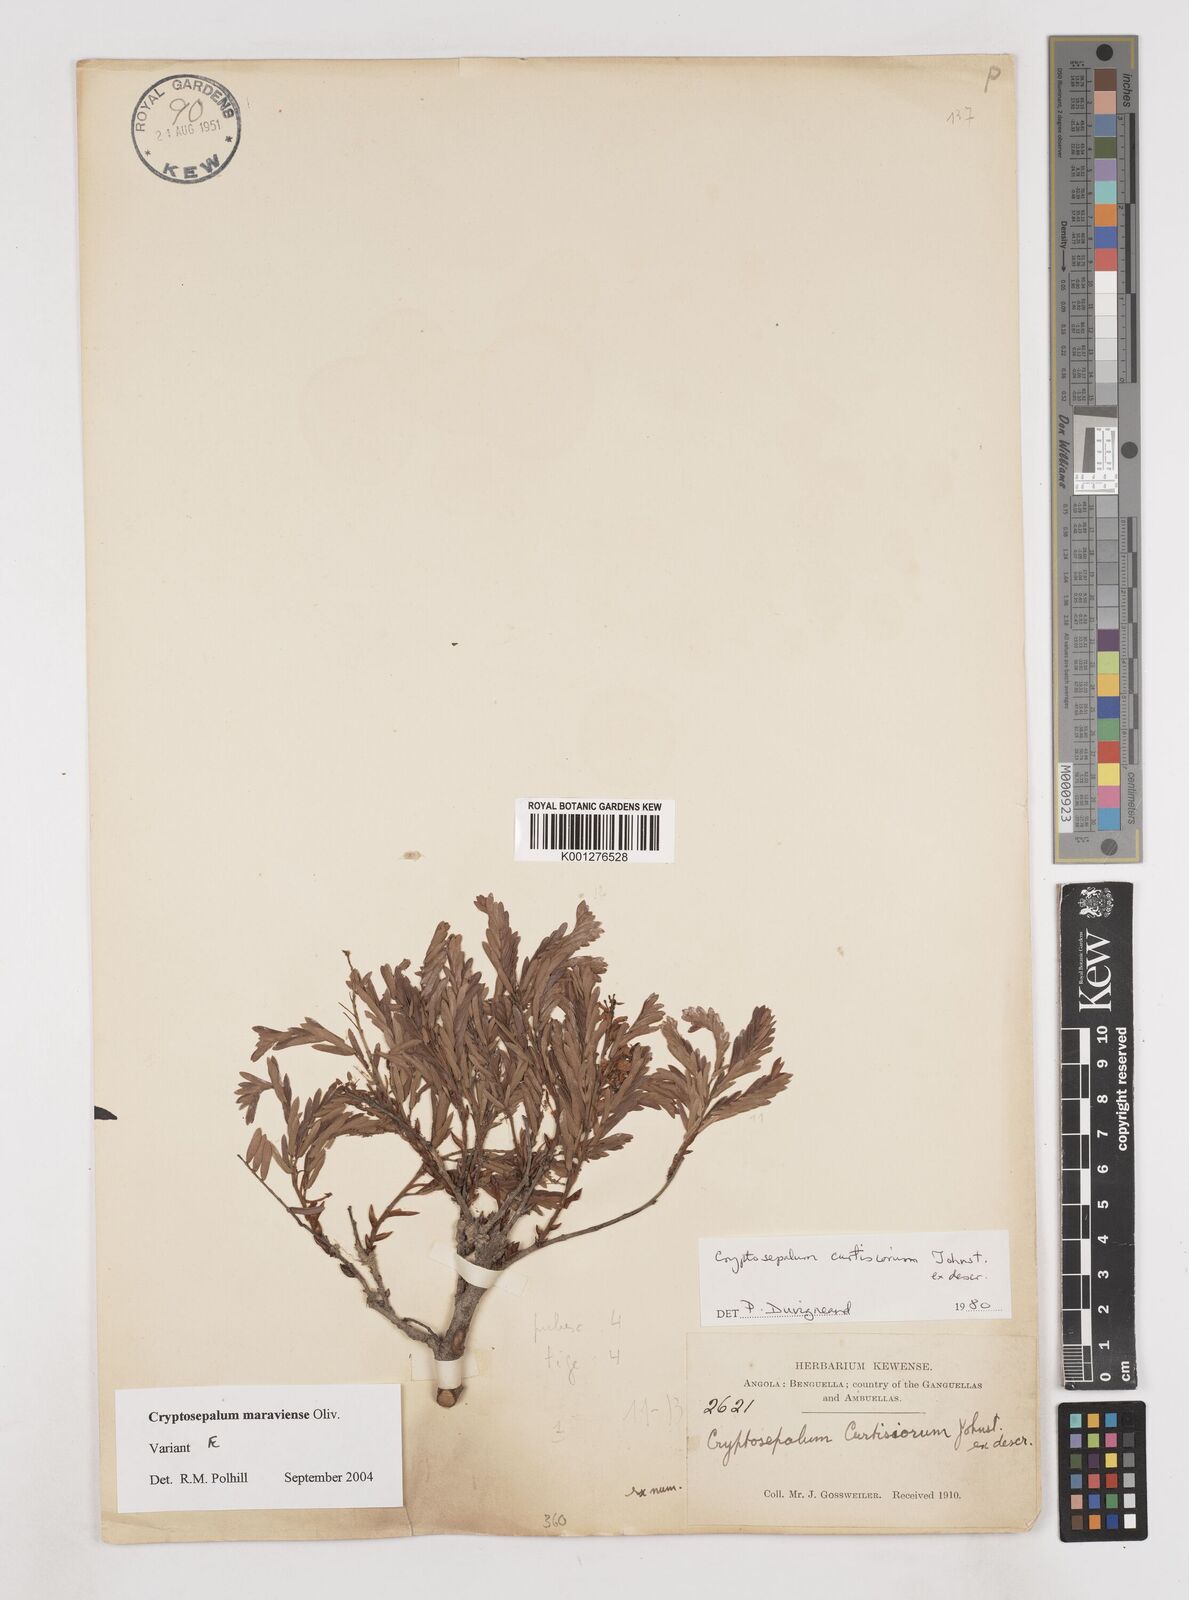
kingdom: Plantae
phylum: Tracheophyta
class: Magnoliopsida
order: Fabales
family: Fabaceae
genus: Cryptosepalum
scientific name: Cryptosepalum maraviense
